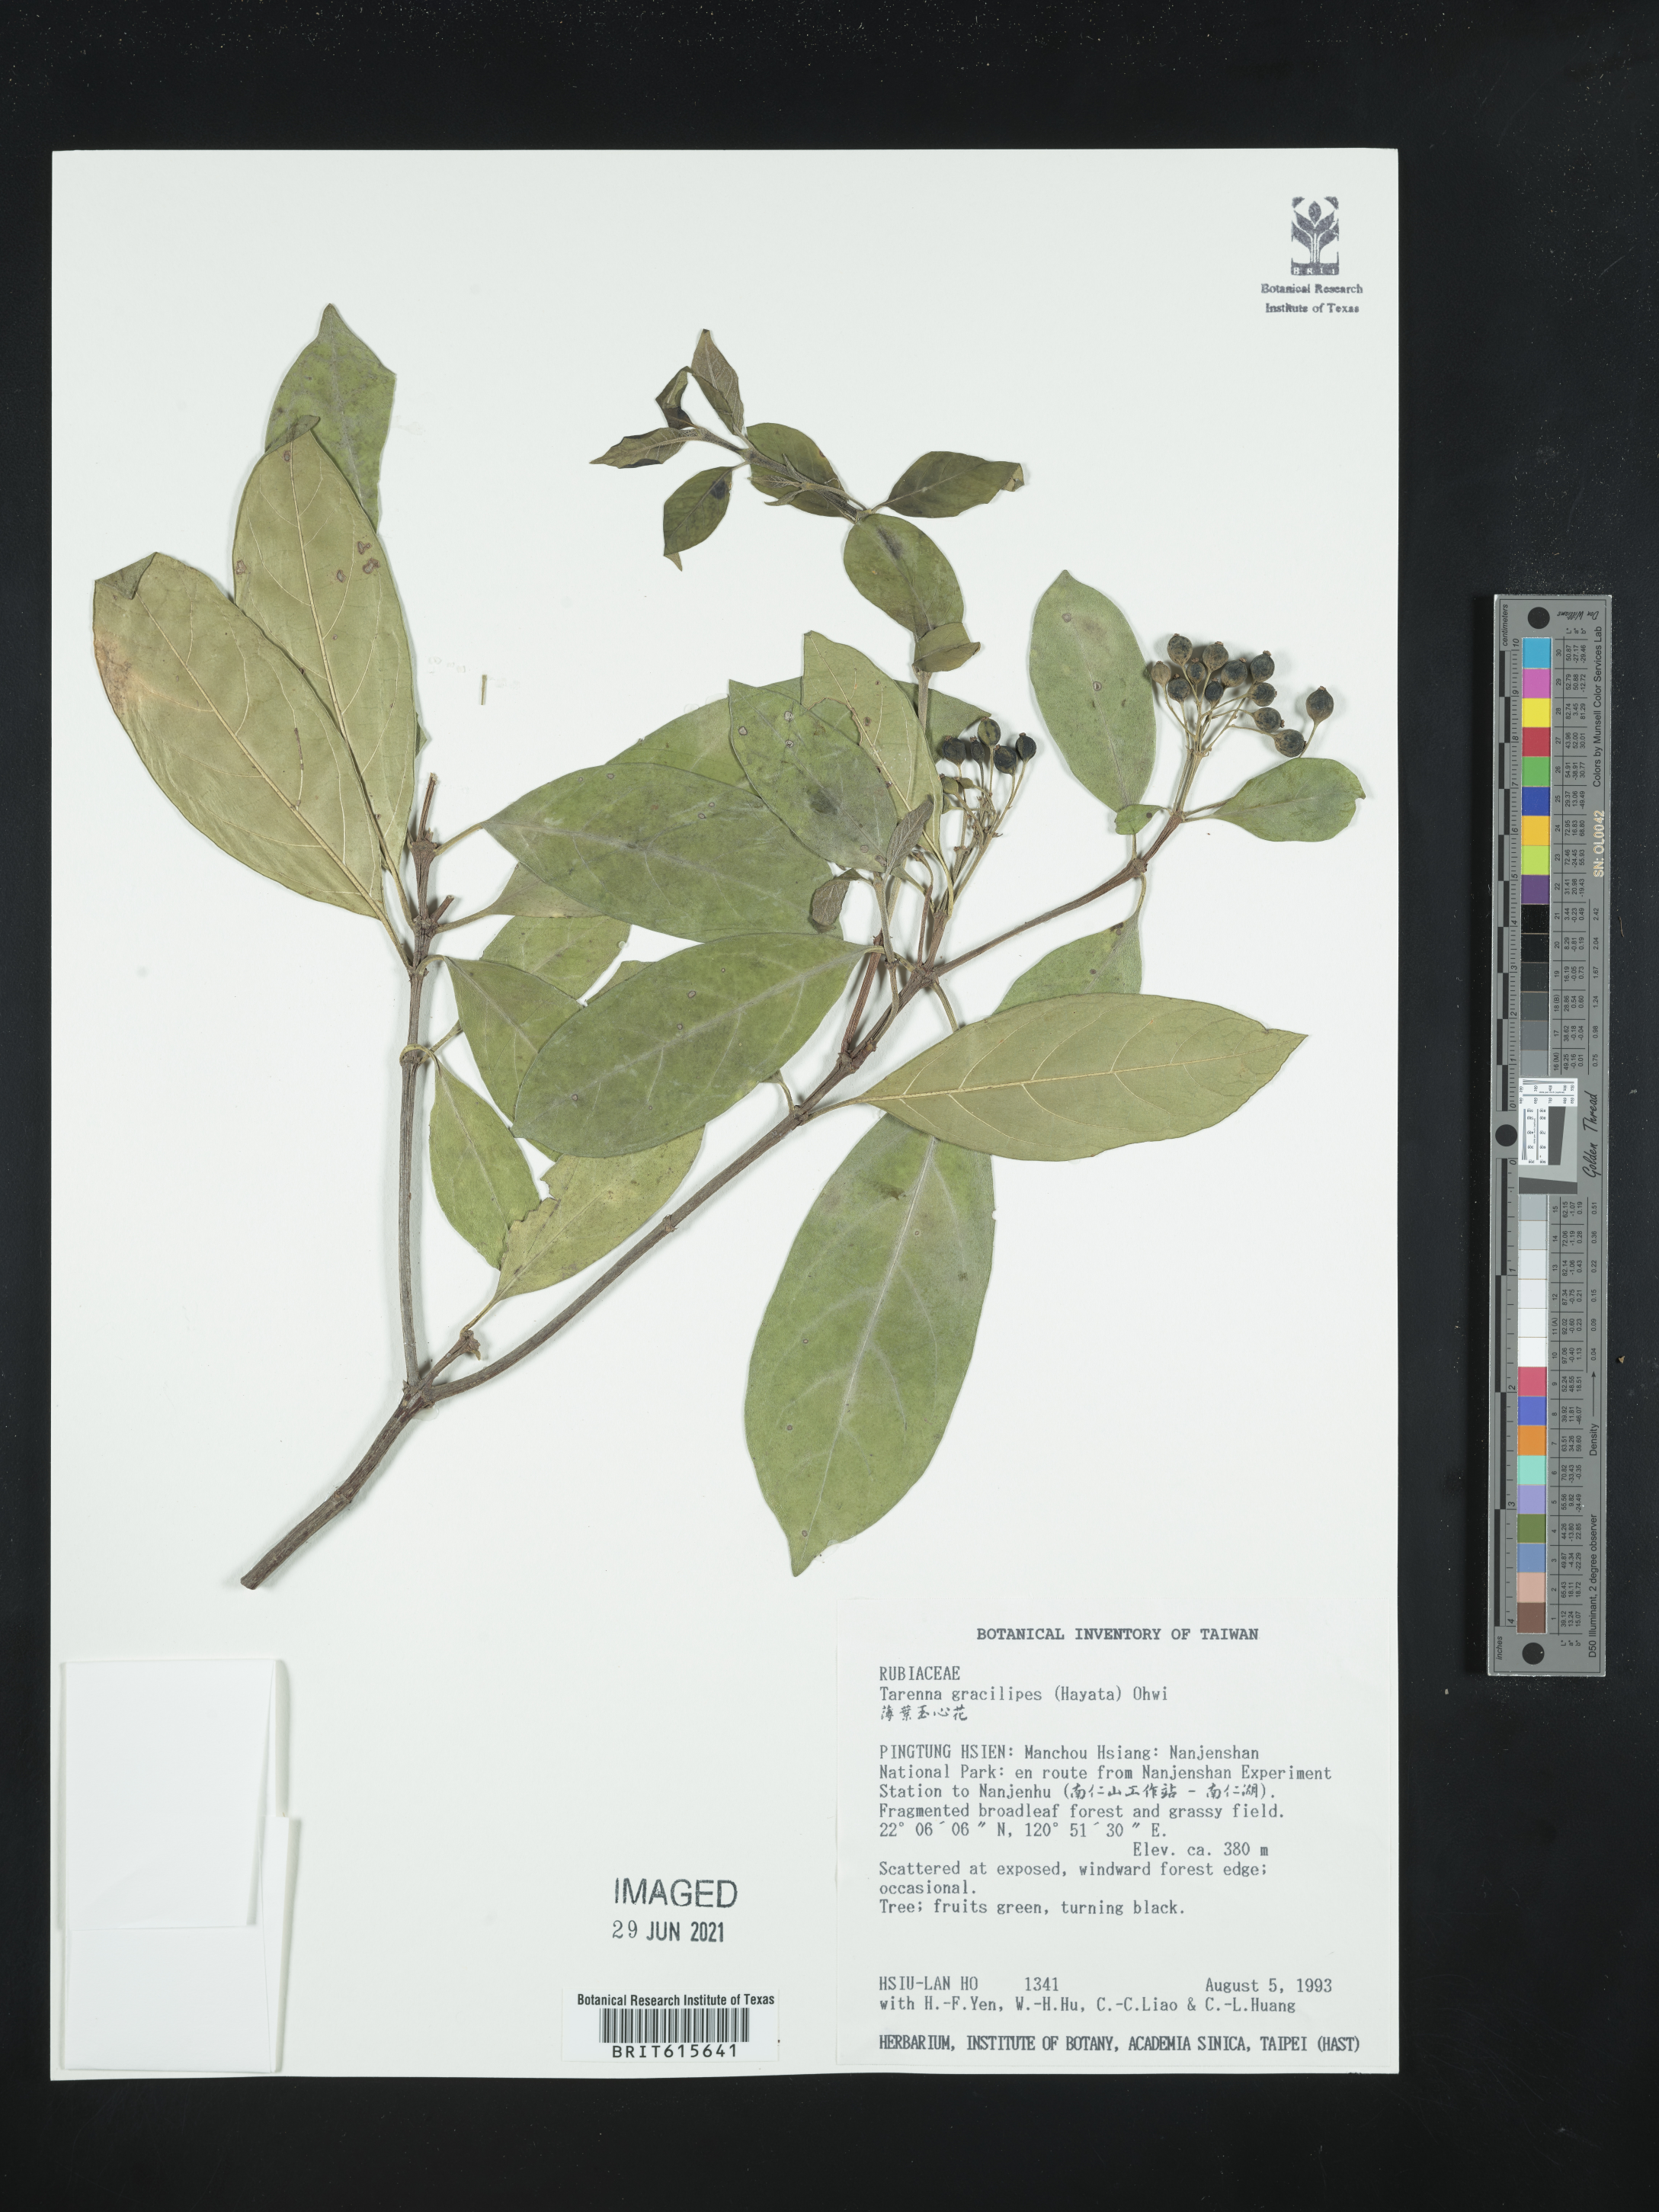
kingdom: Plantae
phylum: Tracheophyta
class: Magnoliopsida
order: Gentianales
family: Rubiaceae
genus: Tarenna
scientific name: Tarenna gracilipes
